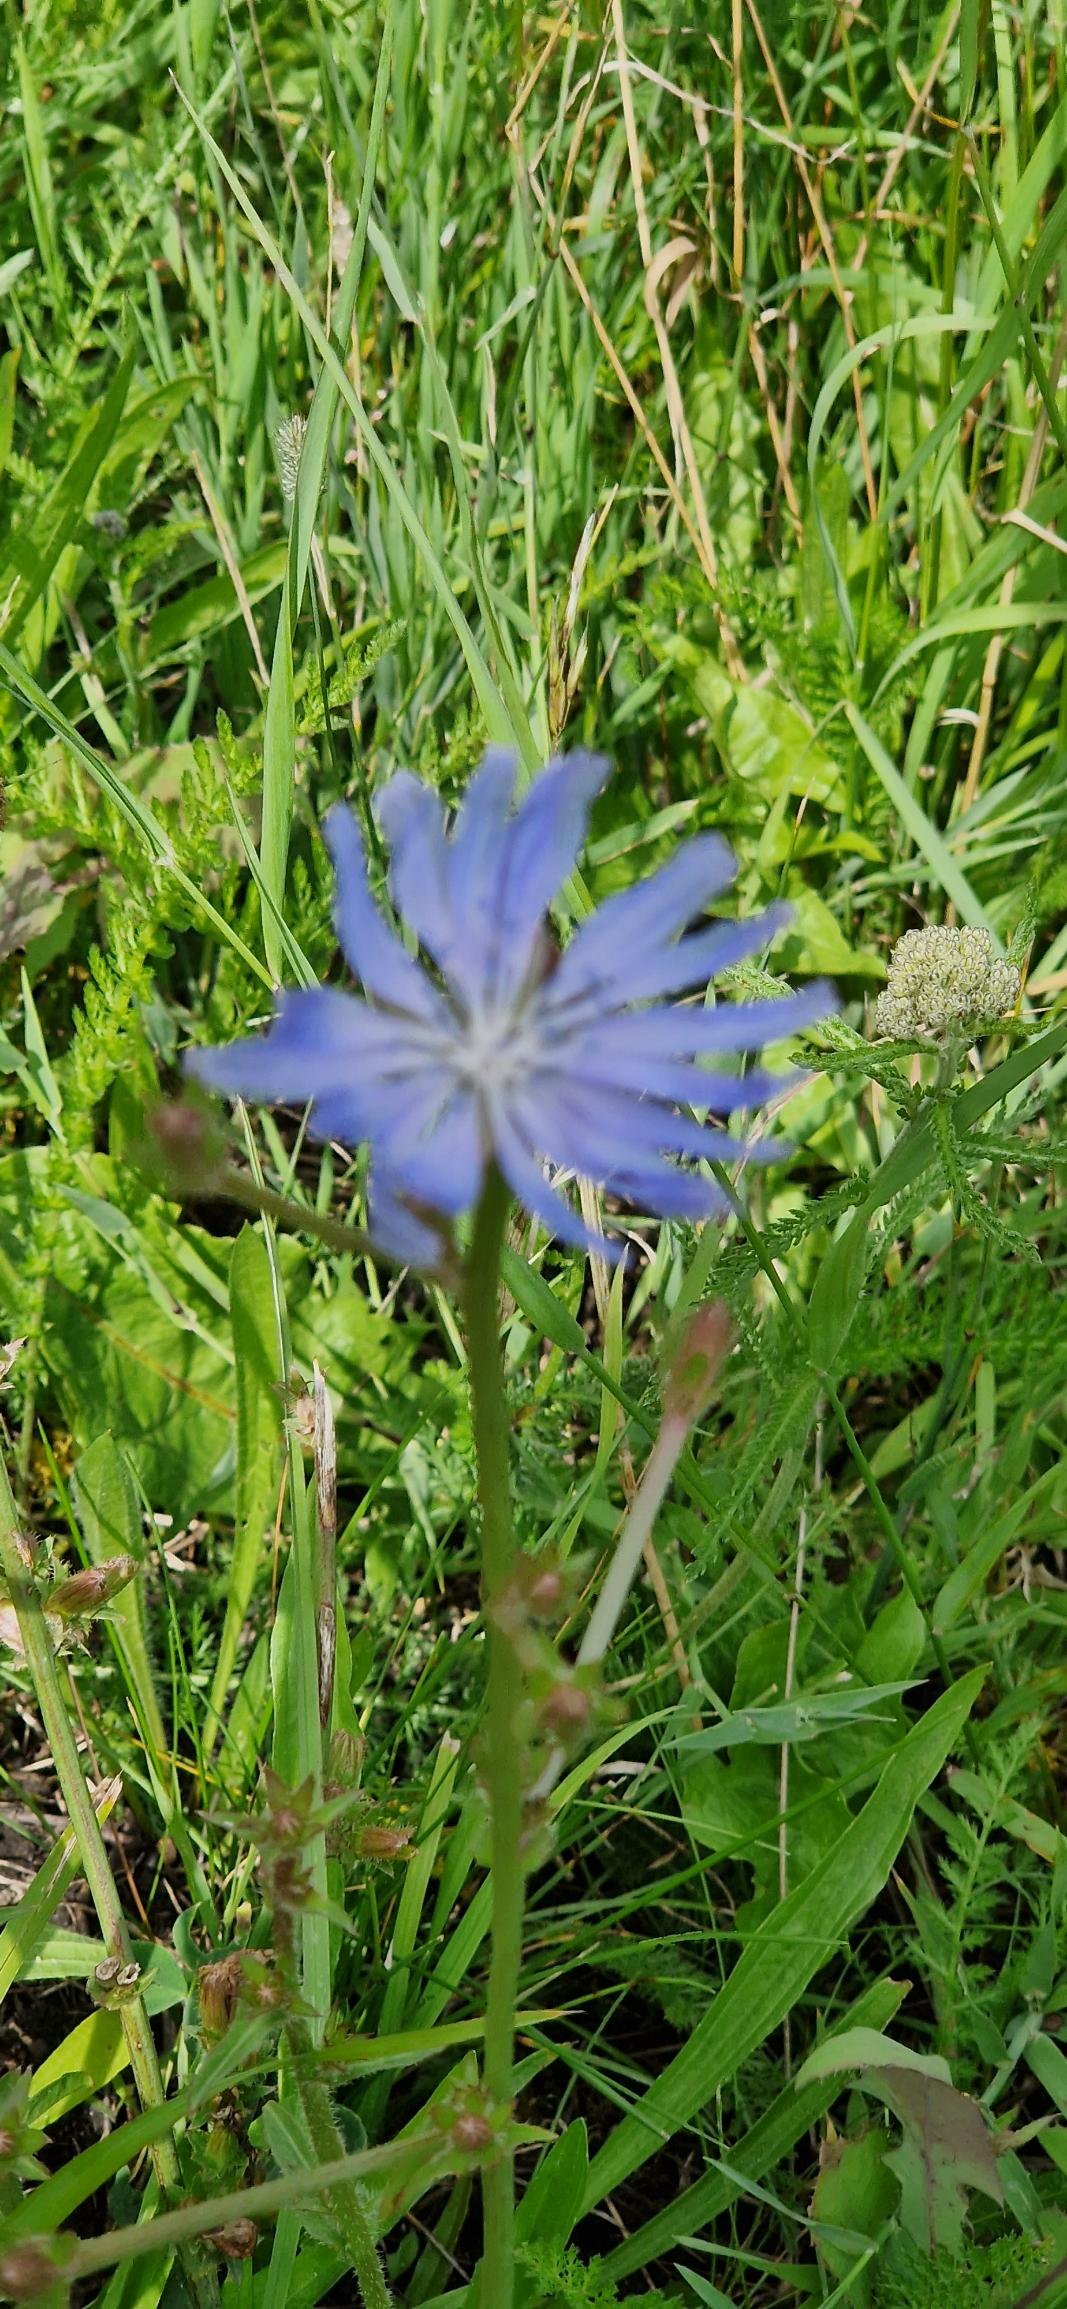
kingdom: Plantae
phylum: Tracheophyta
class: Magnoliopsida
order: Asterales
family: Asteraceae
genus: Cichorium
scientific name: Cichorium intybus
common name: Cikorie
